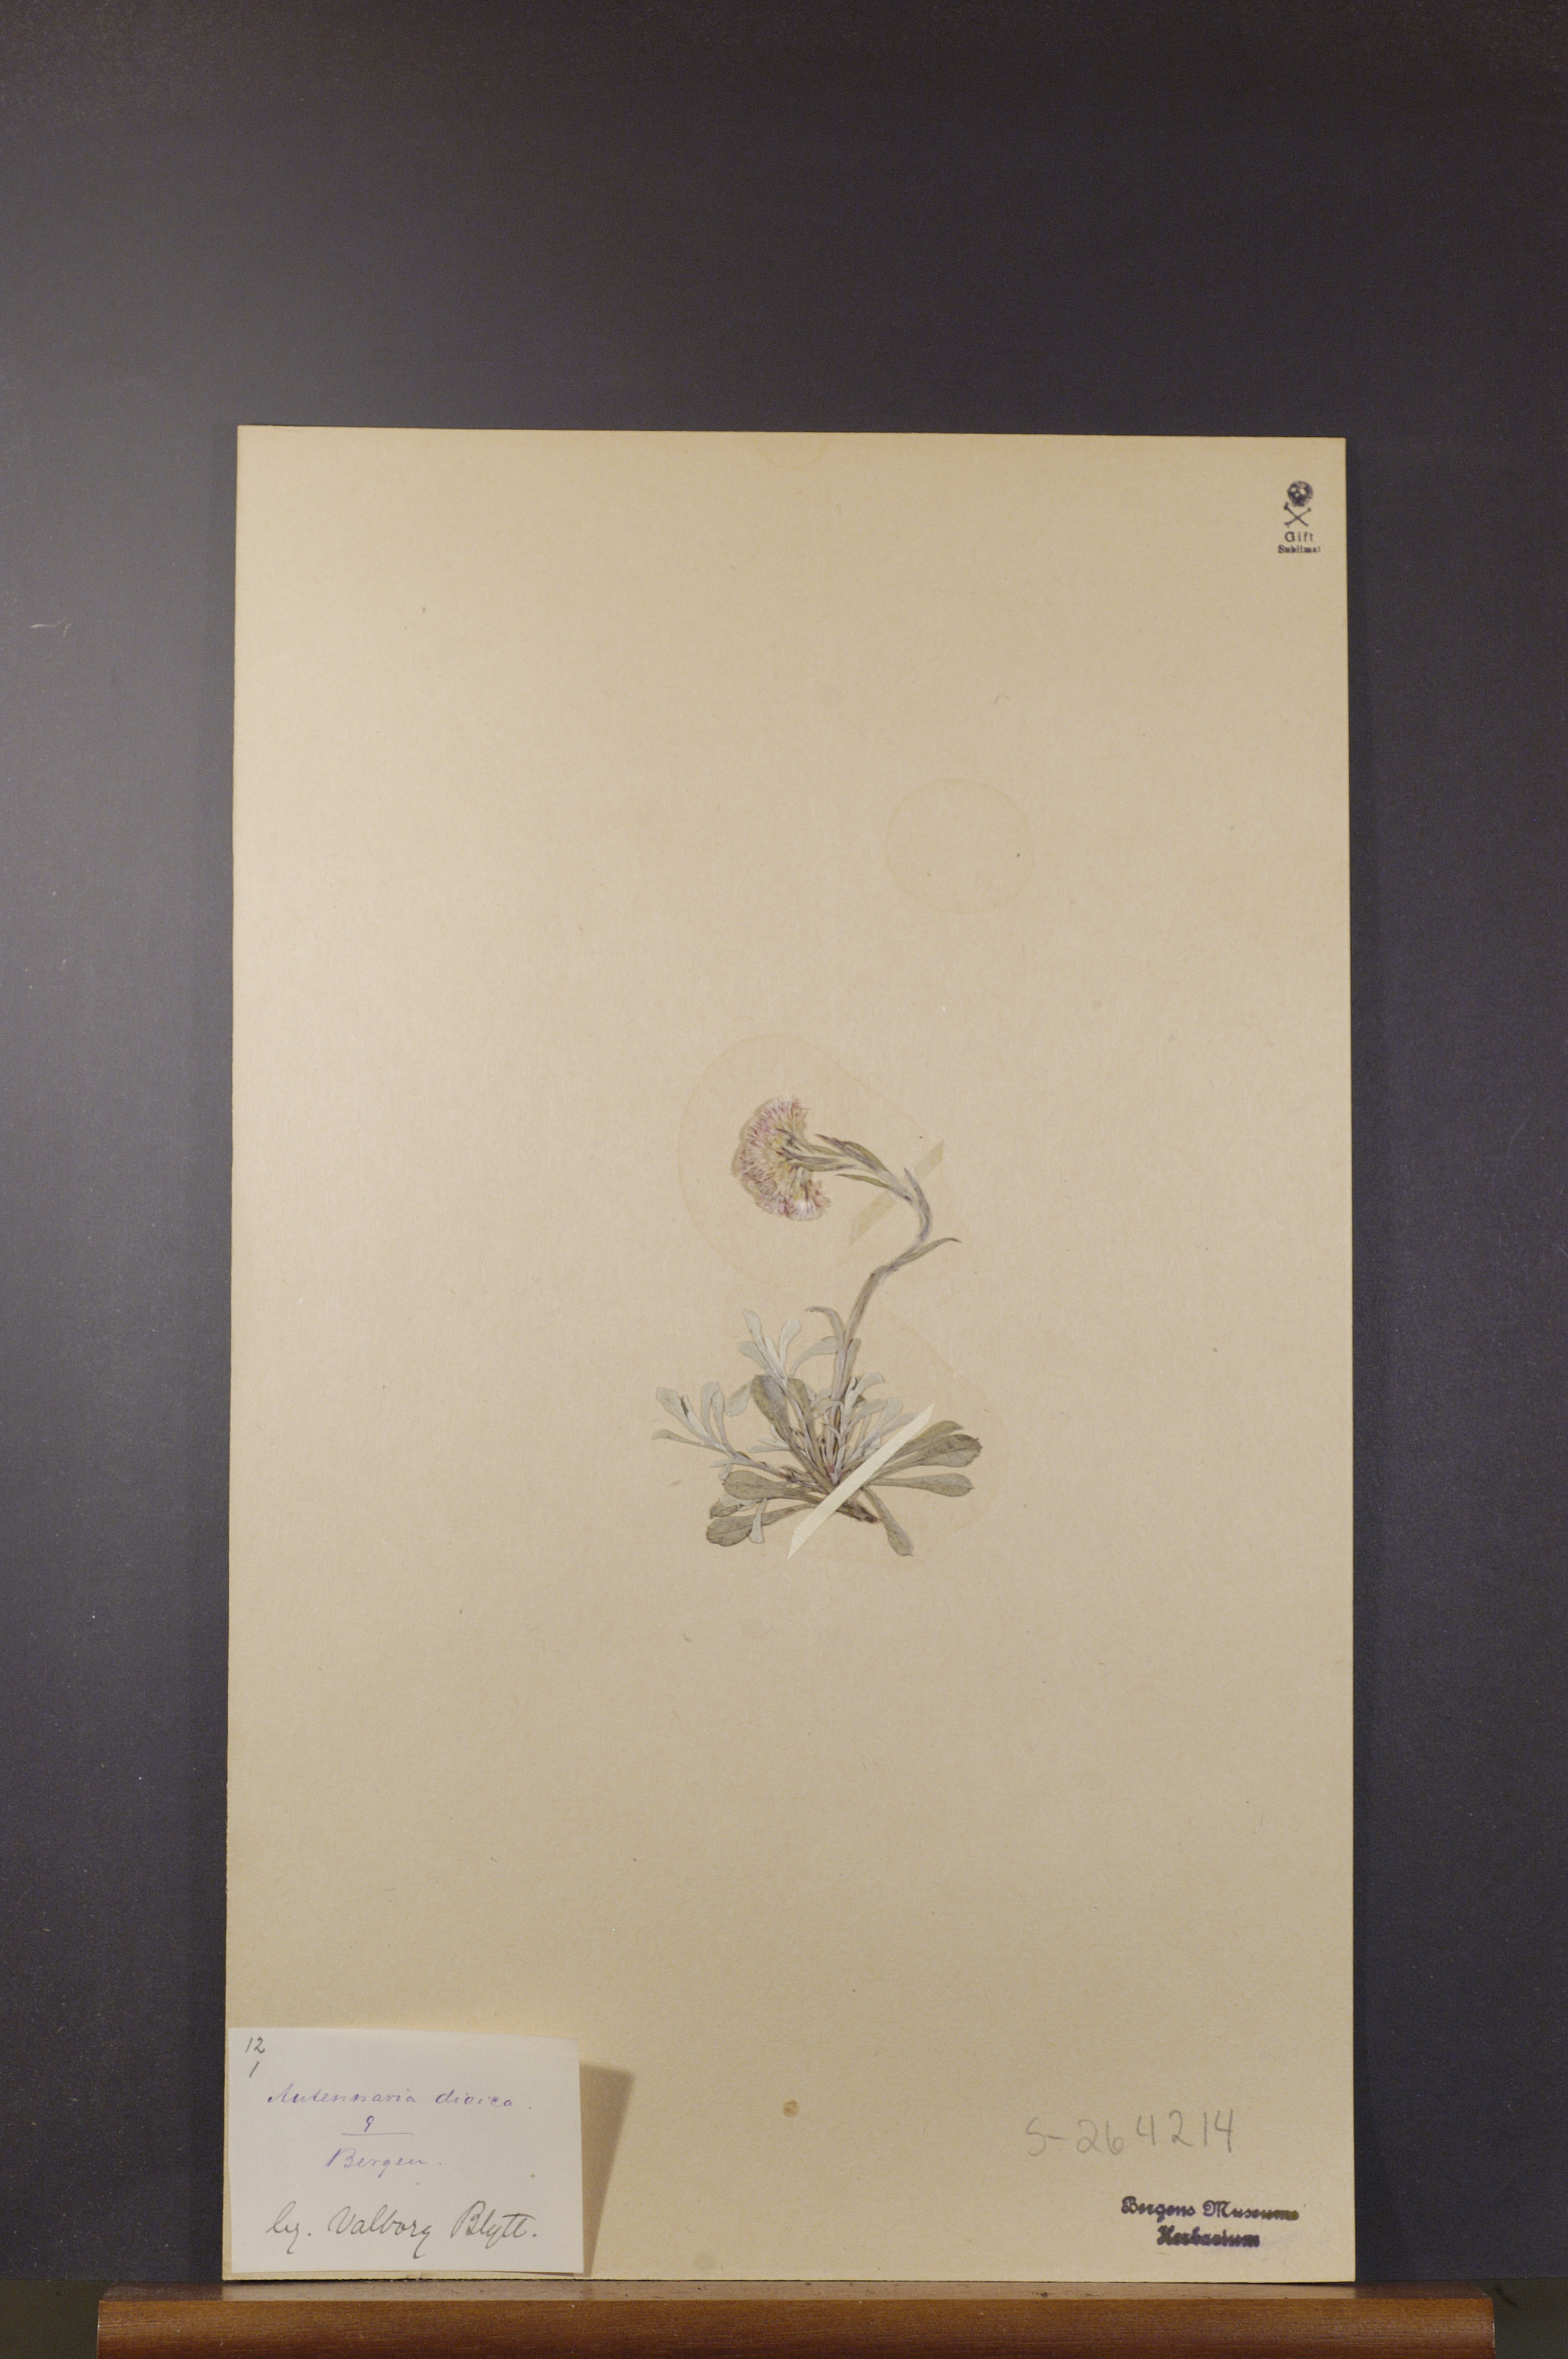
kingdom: Plantae
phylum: Tracheophyta
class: Magnoliopsida
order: Asterales
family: Asteraceae
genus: Antennaria
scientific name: Antennaria dioica
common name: Mountain everlasting
